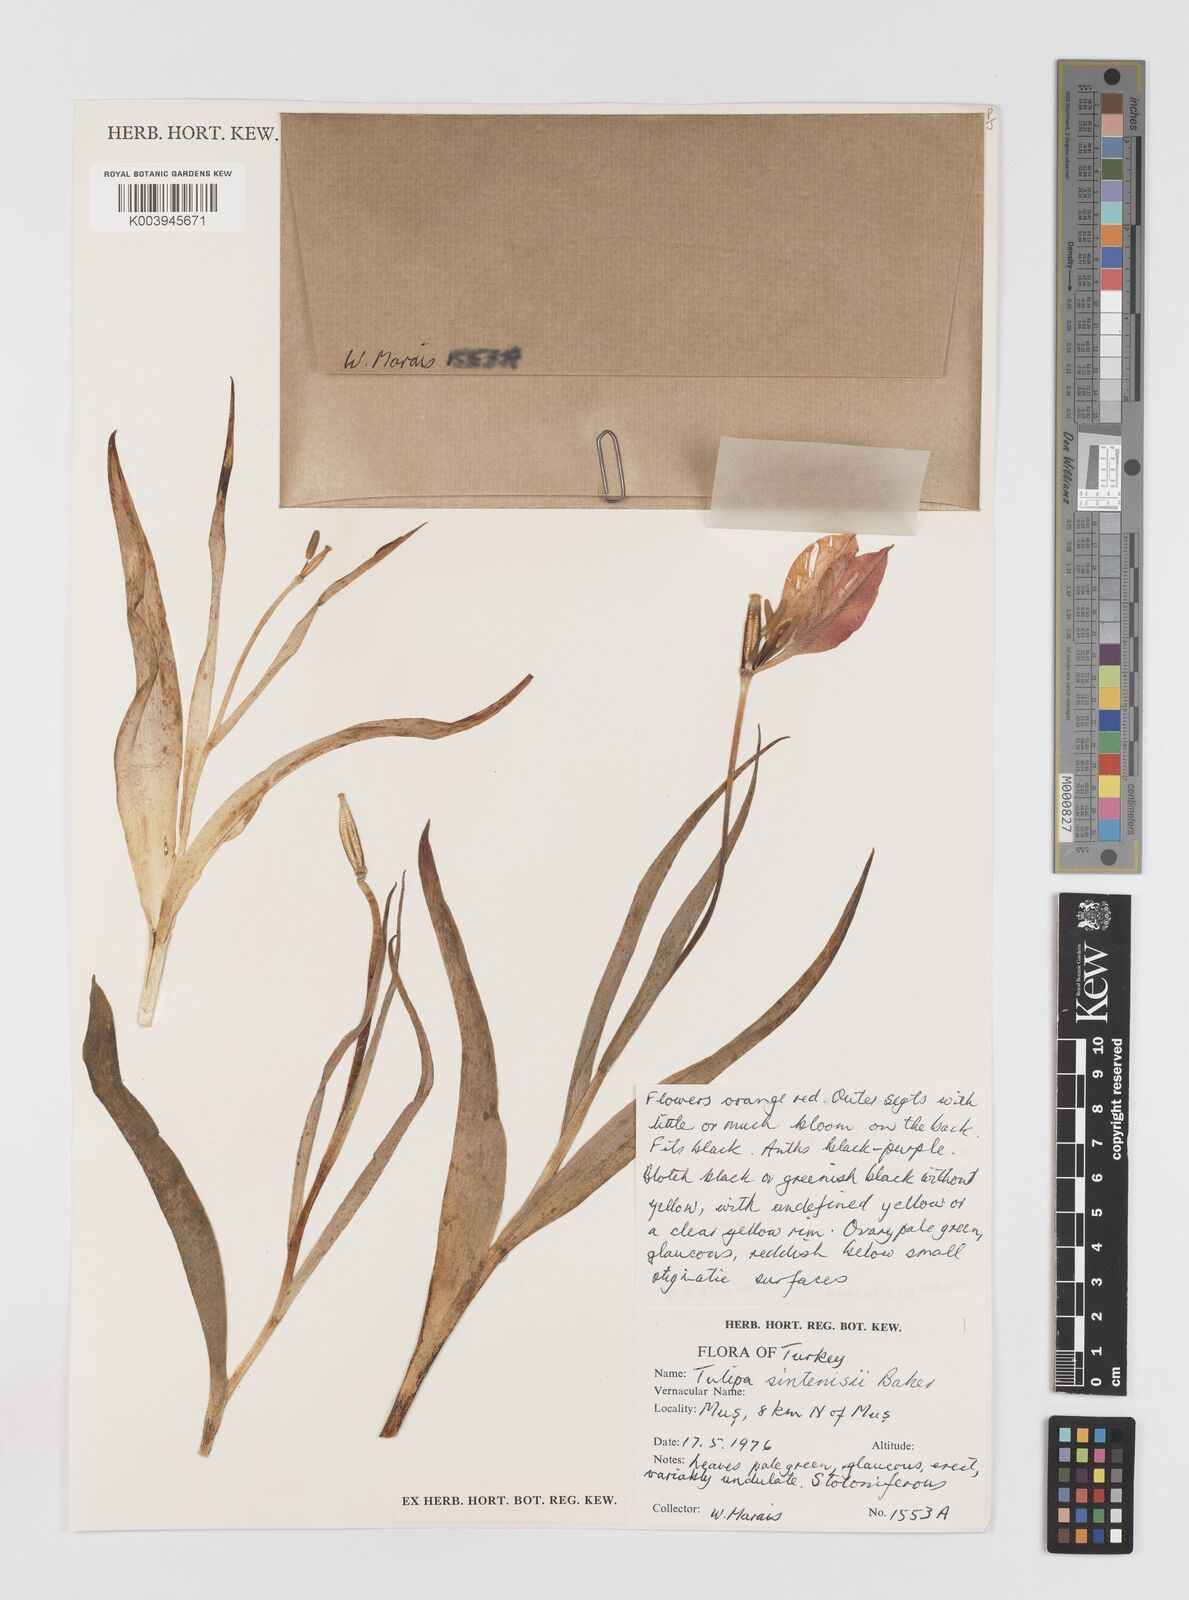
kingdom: Plantae
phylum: Tracheophyta
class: Liliopsida
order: Liliales
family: Liliaceae
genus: Tulipa
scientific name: Tulipa aleppensis
